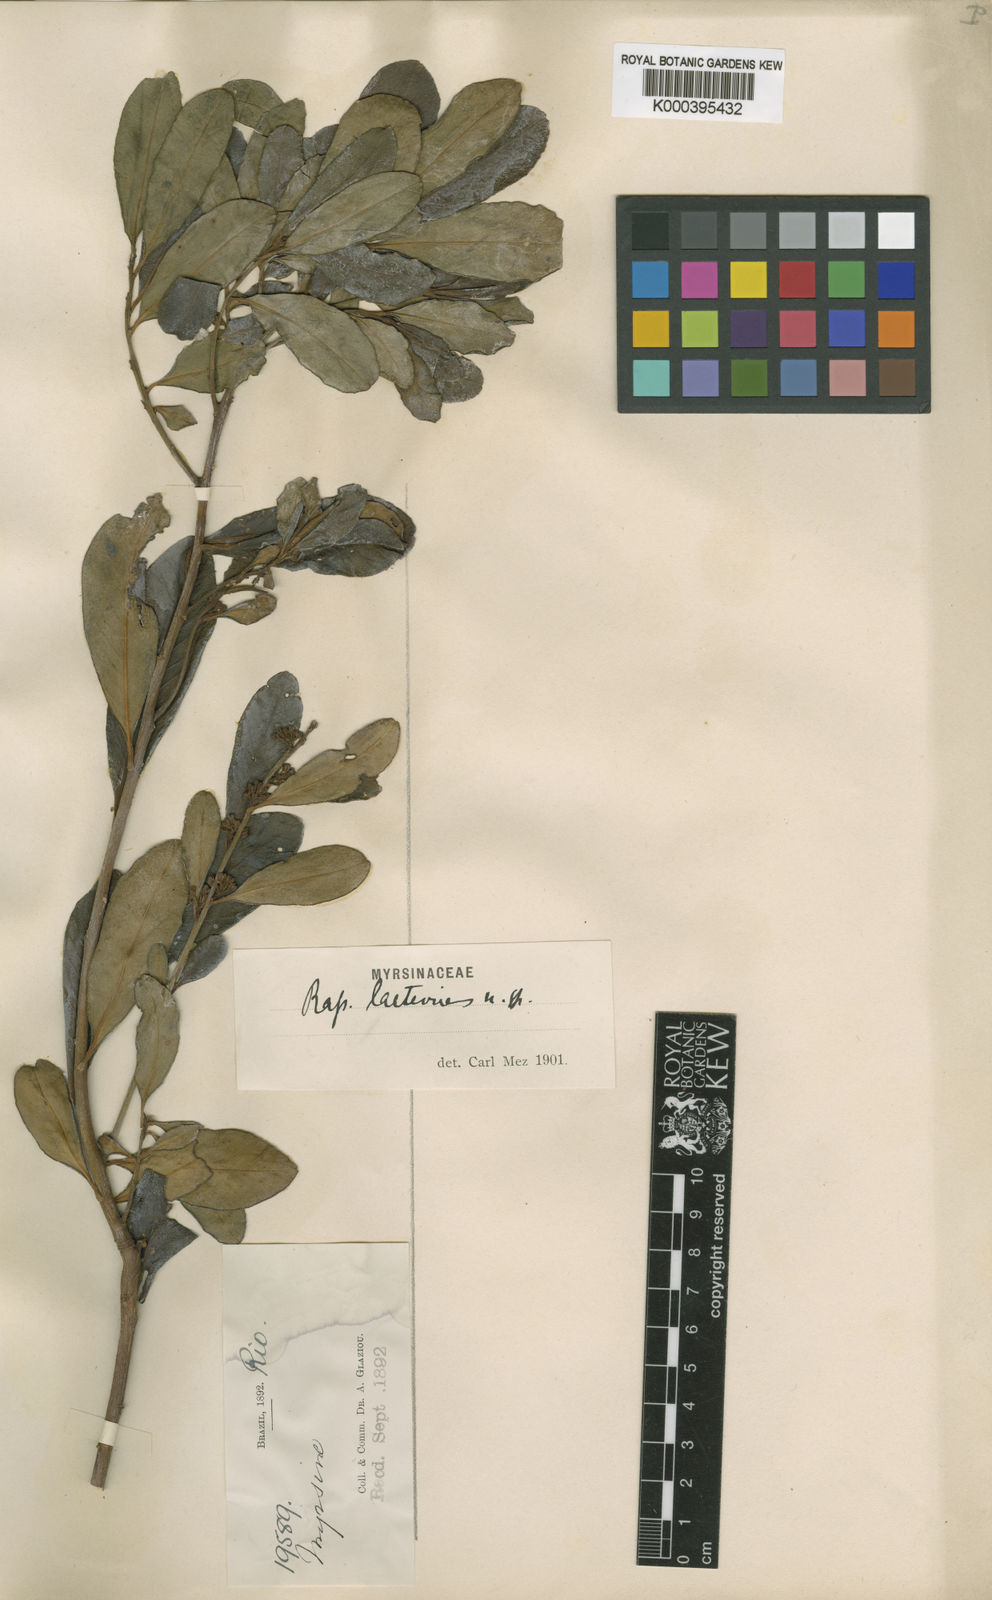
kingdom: Plantae
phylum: Tracheophyta
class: Magnoliopsida
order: Ericales
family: Primulaceae
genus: Myrsine
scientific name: Myrsine laetevirens
